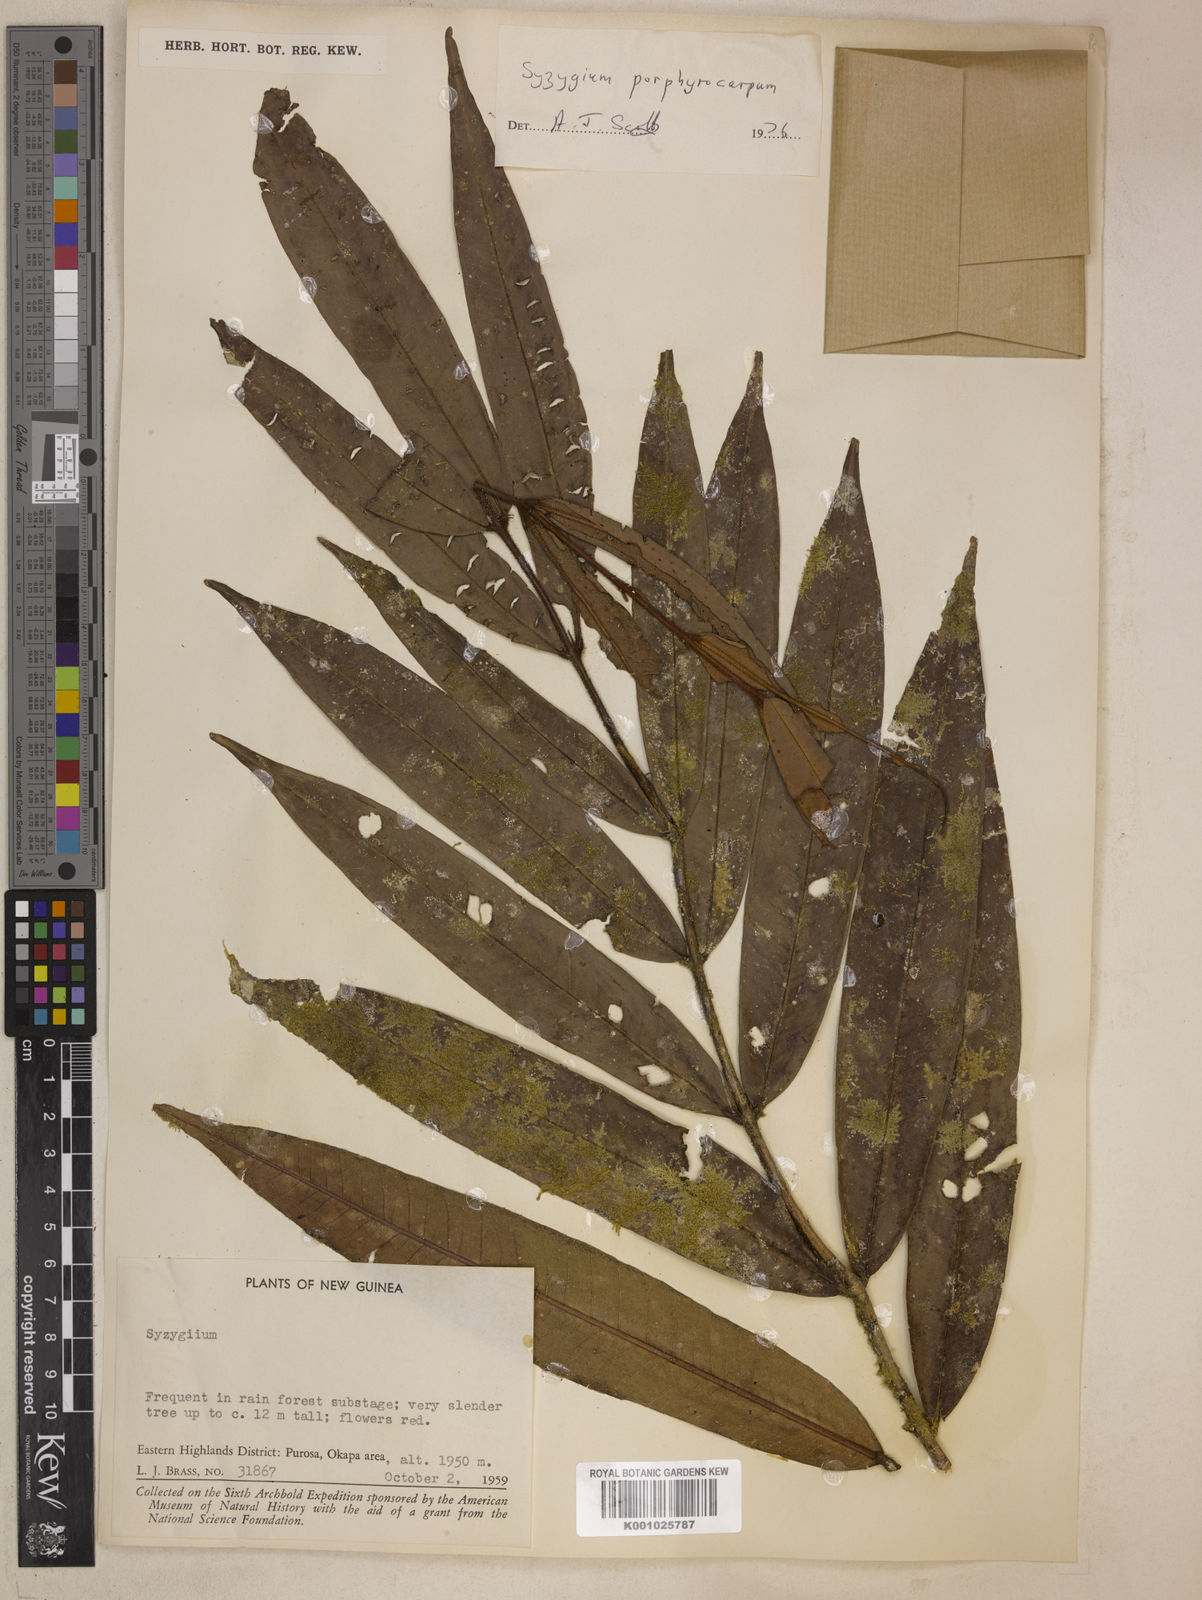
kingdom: Plantae
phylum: Tracheophyta
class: Magnoliopsida
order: Myrtales
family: Myrtaceae
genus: Syzygium
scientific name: Syzygium porphyrocarpum
